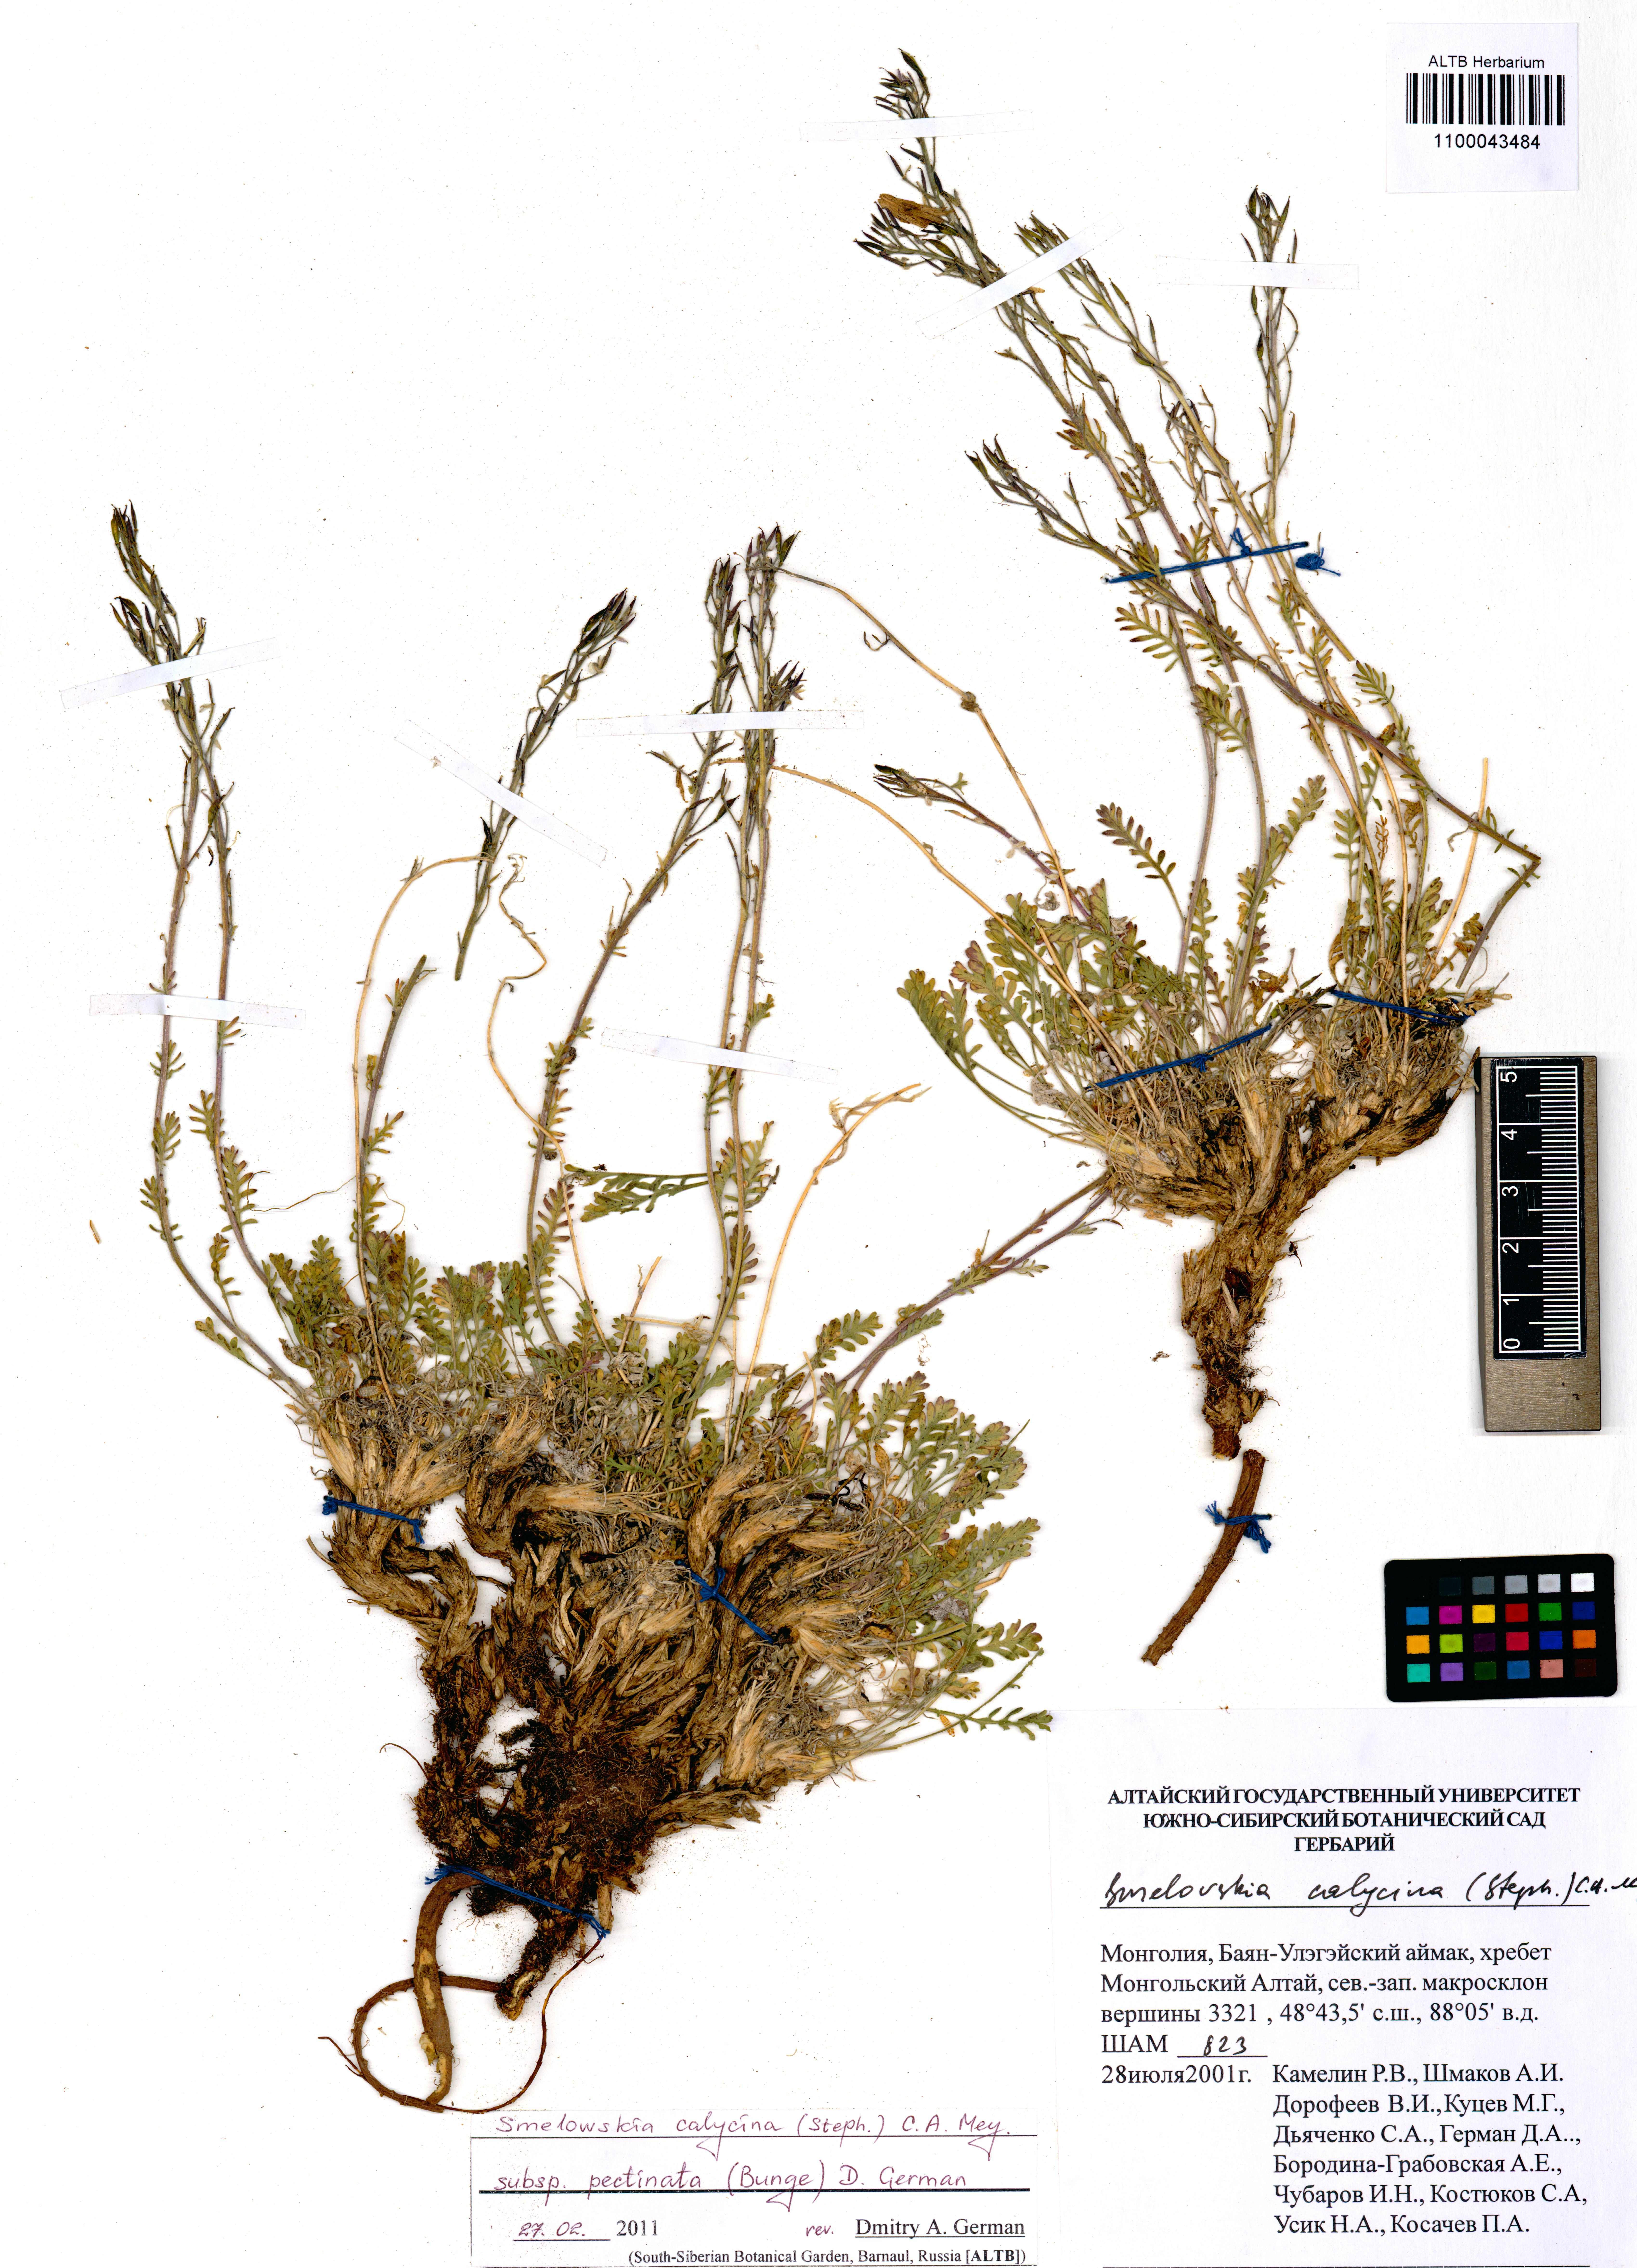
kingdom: Plantae
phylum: Tracheophyta
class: Magnoliopsida
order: Brassicales
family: Brassicaceae
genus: Smelowskia
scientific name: Smelowskia calycina
